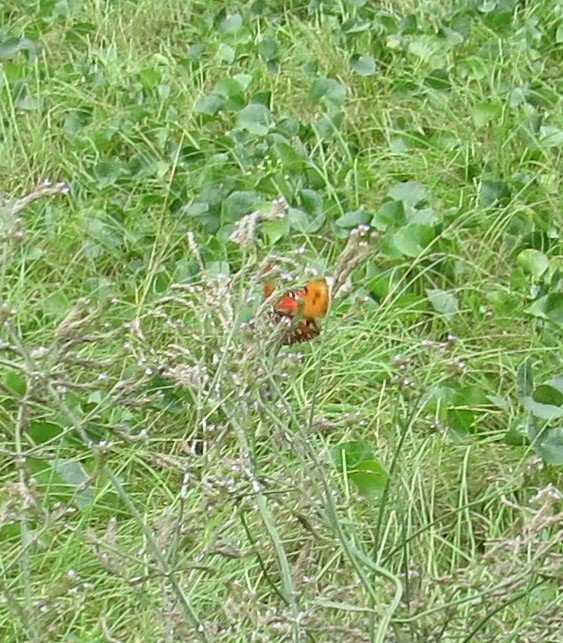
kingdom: Animalia
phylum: Arthropoda
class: Insecta
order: Lepidoptera
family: Nymphalidae
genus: Dione
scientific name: Dione vanillae
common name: Gulf Fritillary
